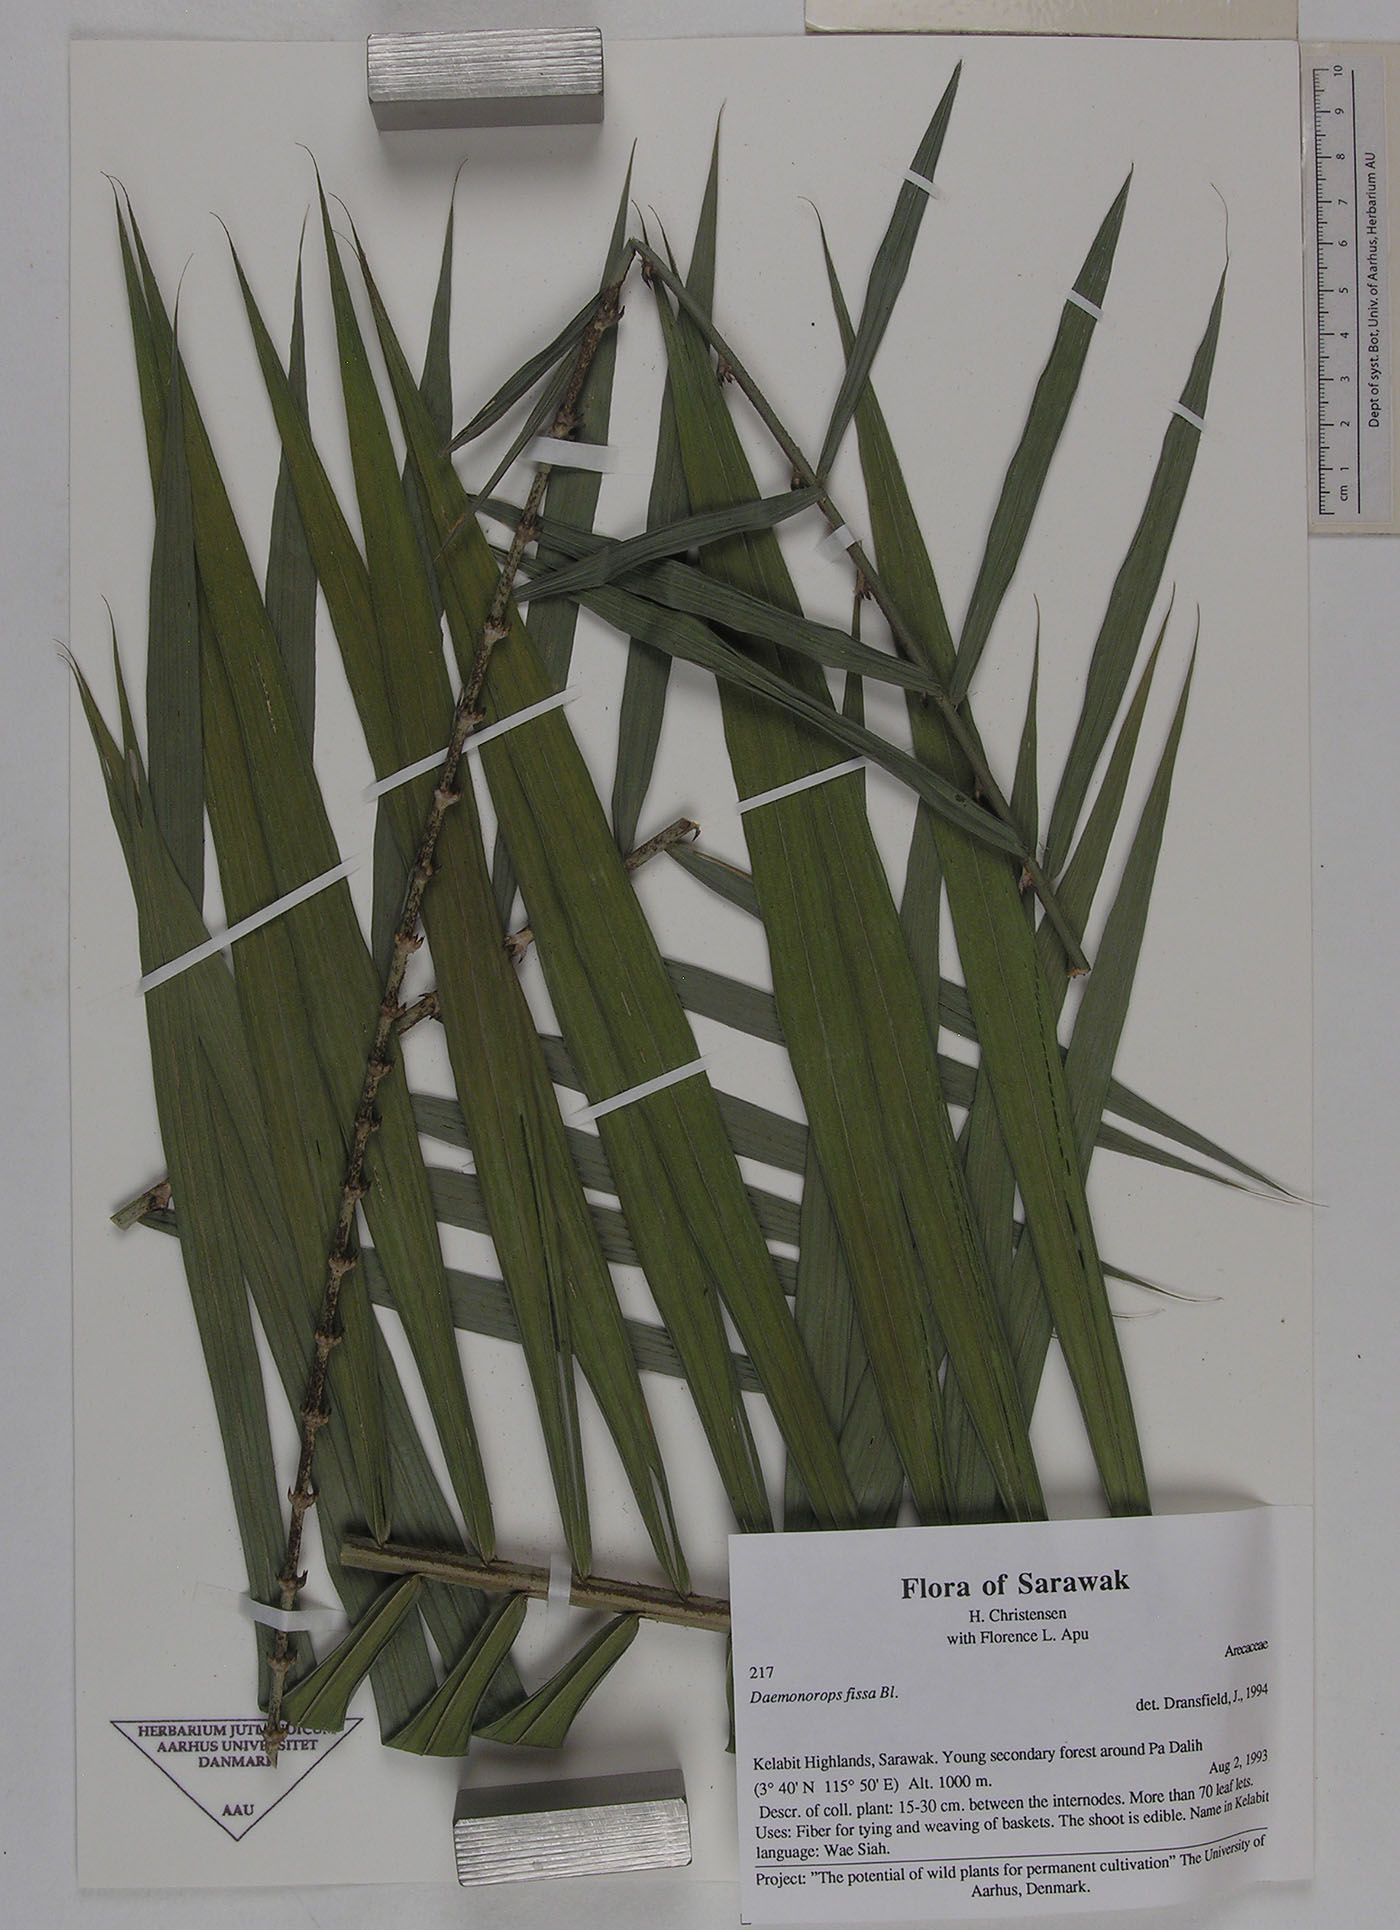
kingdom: Plantae
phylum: Tracheophyta
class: Liliopsida
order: Arecales
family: Arecaceae
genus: Calamus
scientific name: Calamus melanochaetes
